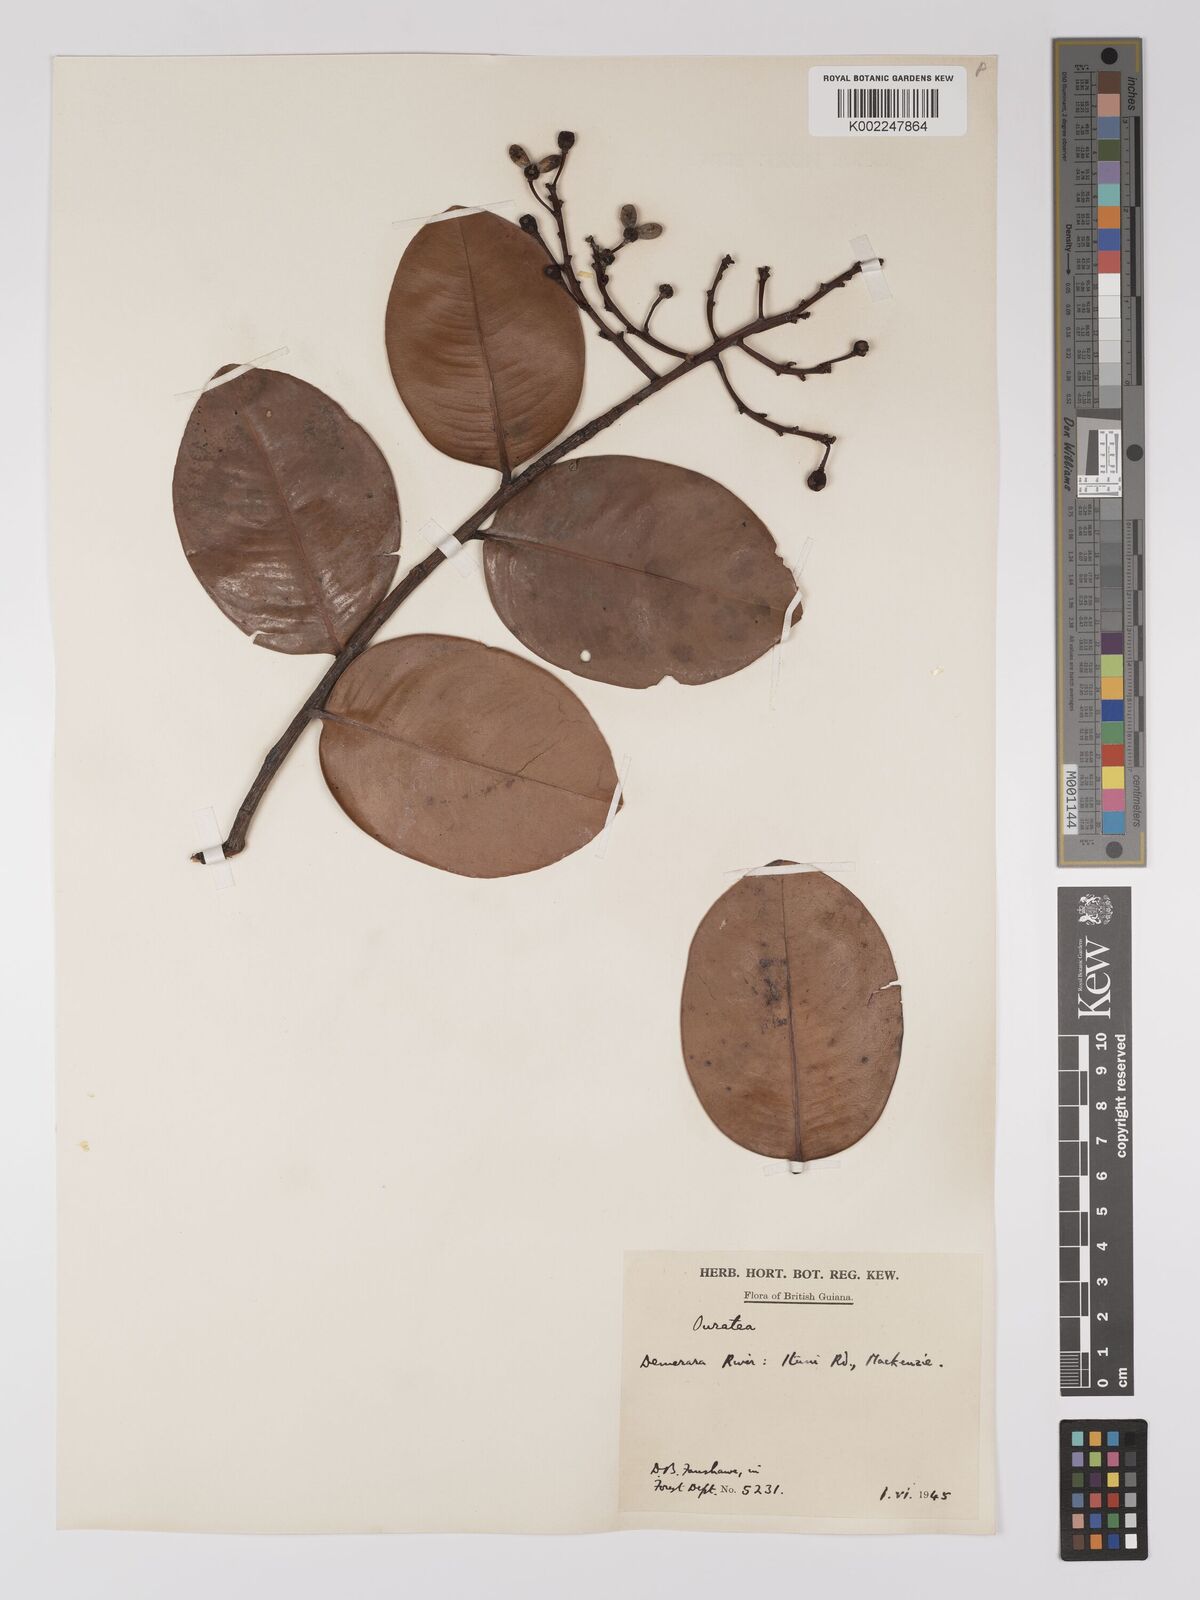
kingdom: Plantae
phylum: Tracheophyta
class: Magnoliopsida
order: Malpighiales
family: Ochnaceae
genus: Ouratea
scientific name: Ouratea
